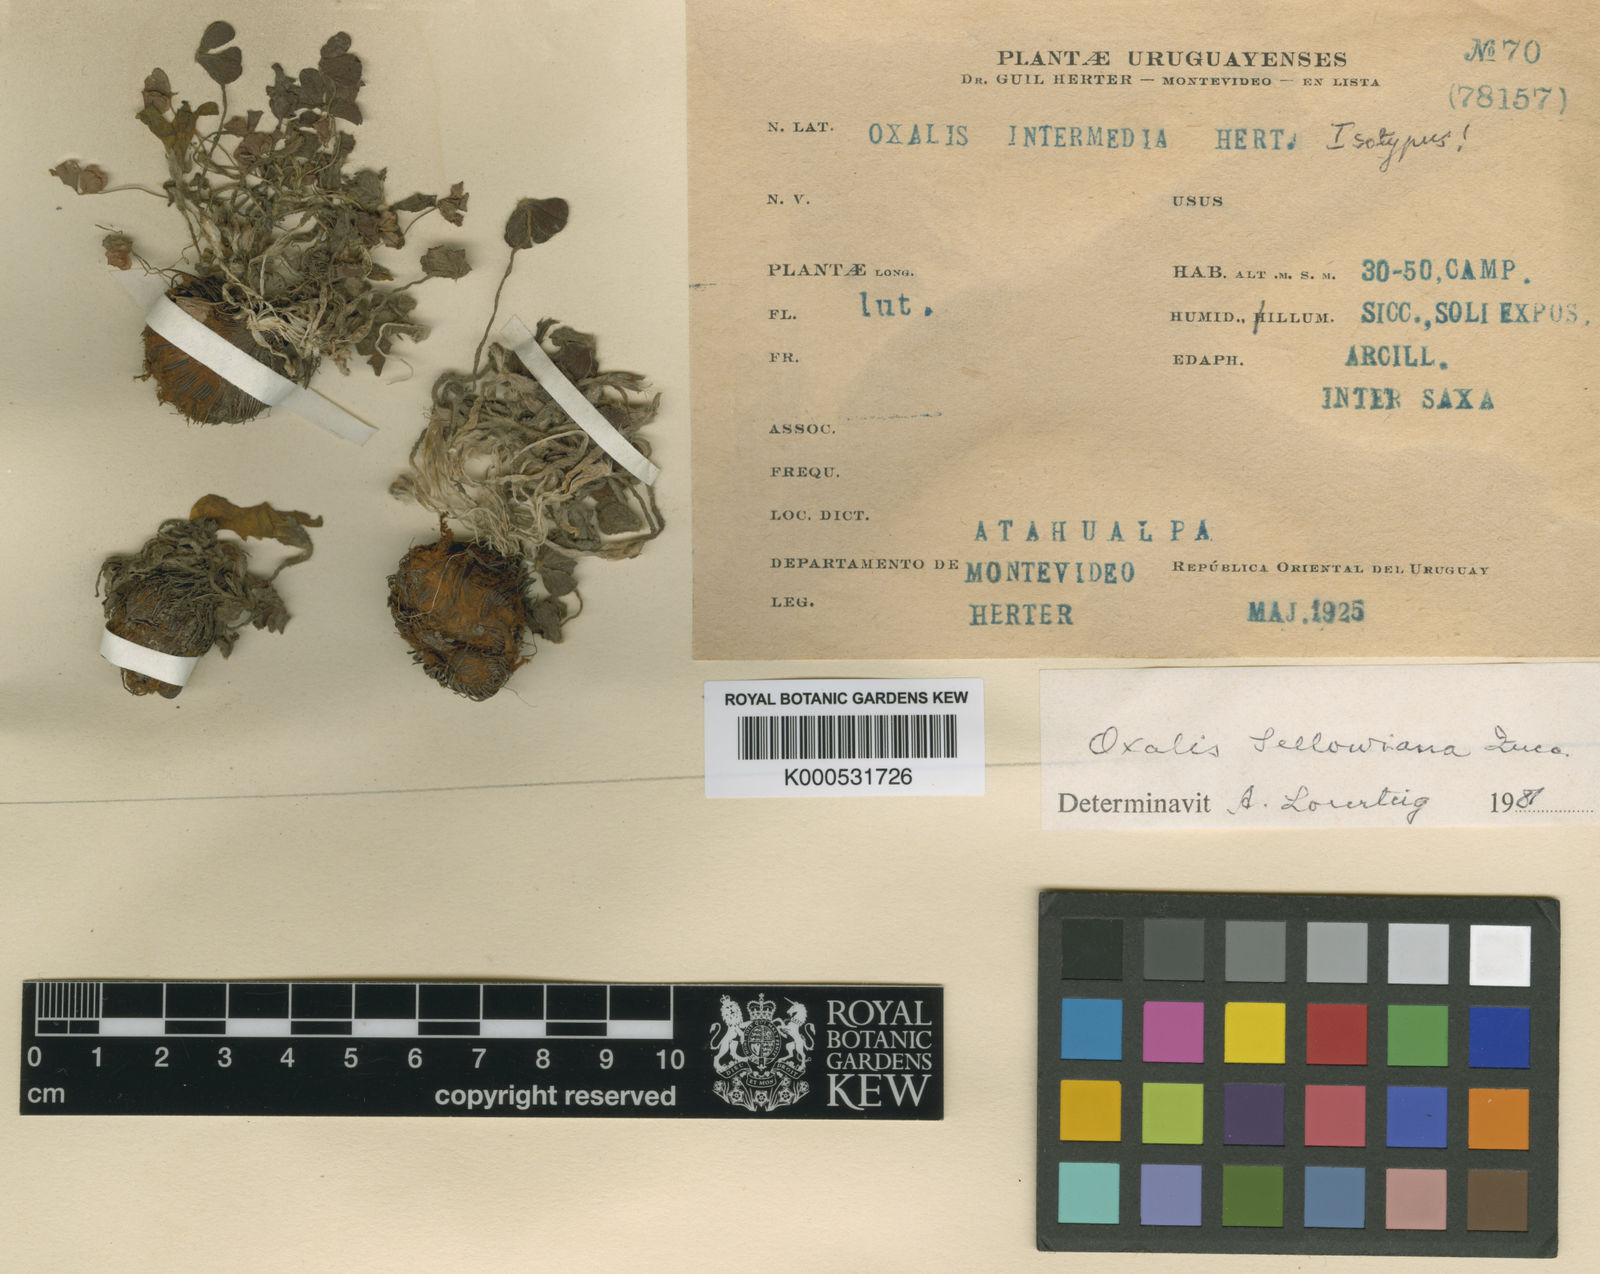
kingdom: Plantae
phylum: Tracheophyta
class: Magnoliopsida
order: Oxalidales
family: Oxalidaceae
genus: Oxalis
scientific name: Oxalis sellowiana
